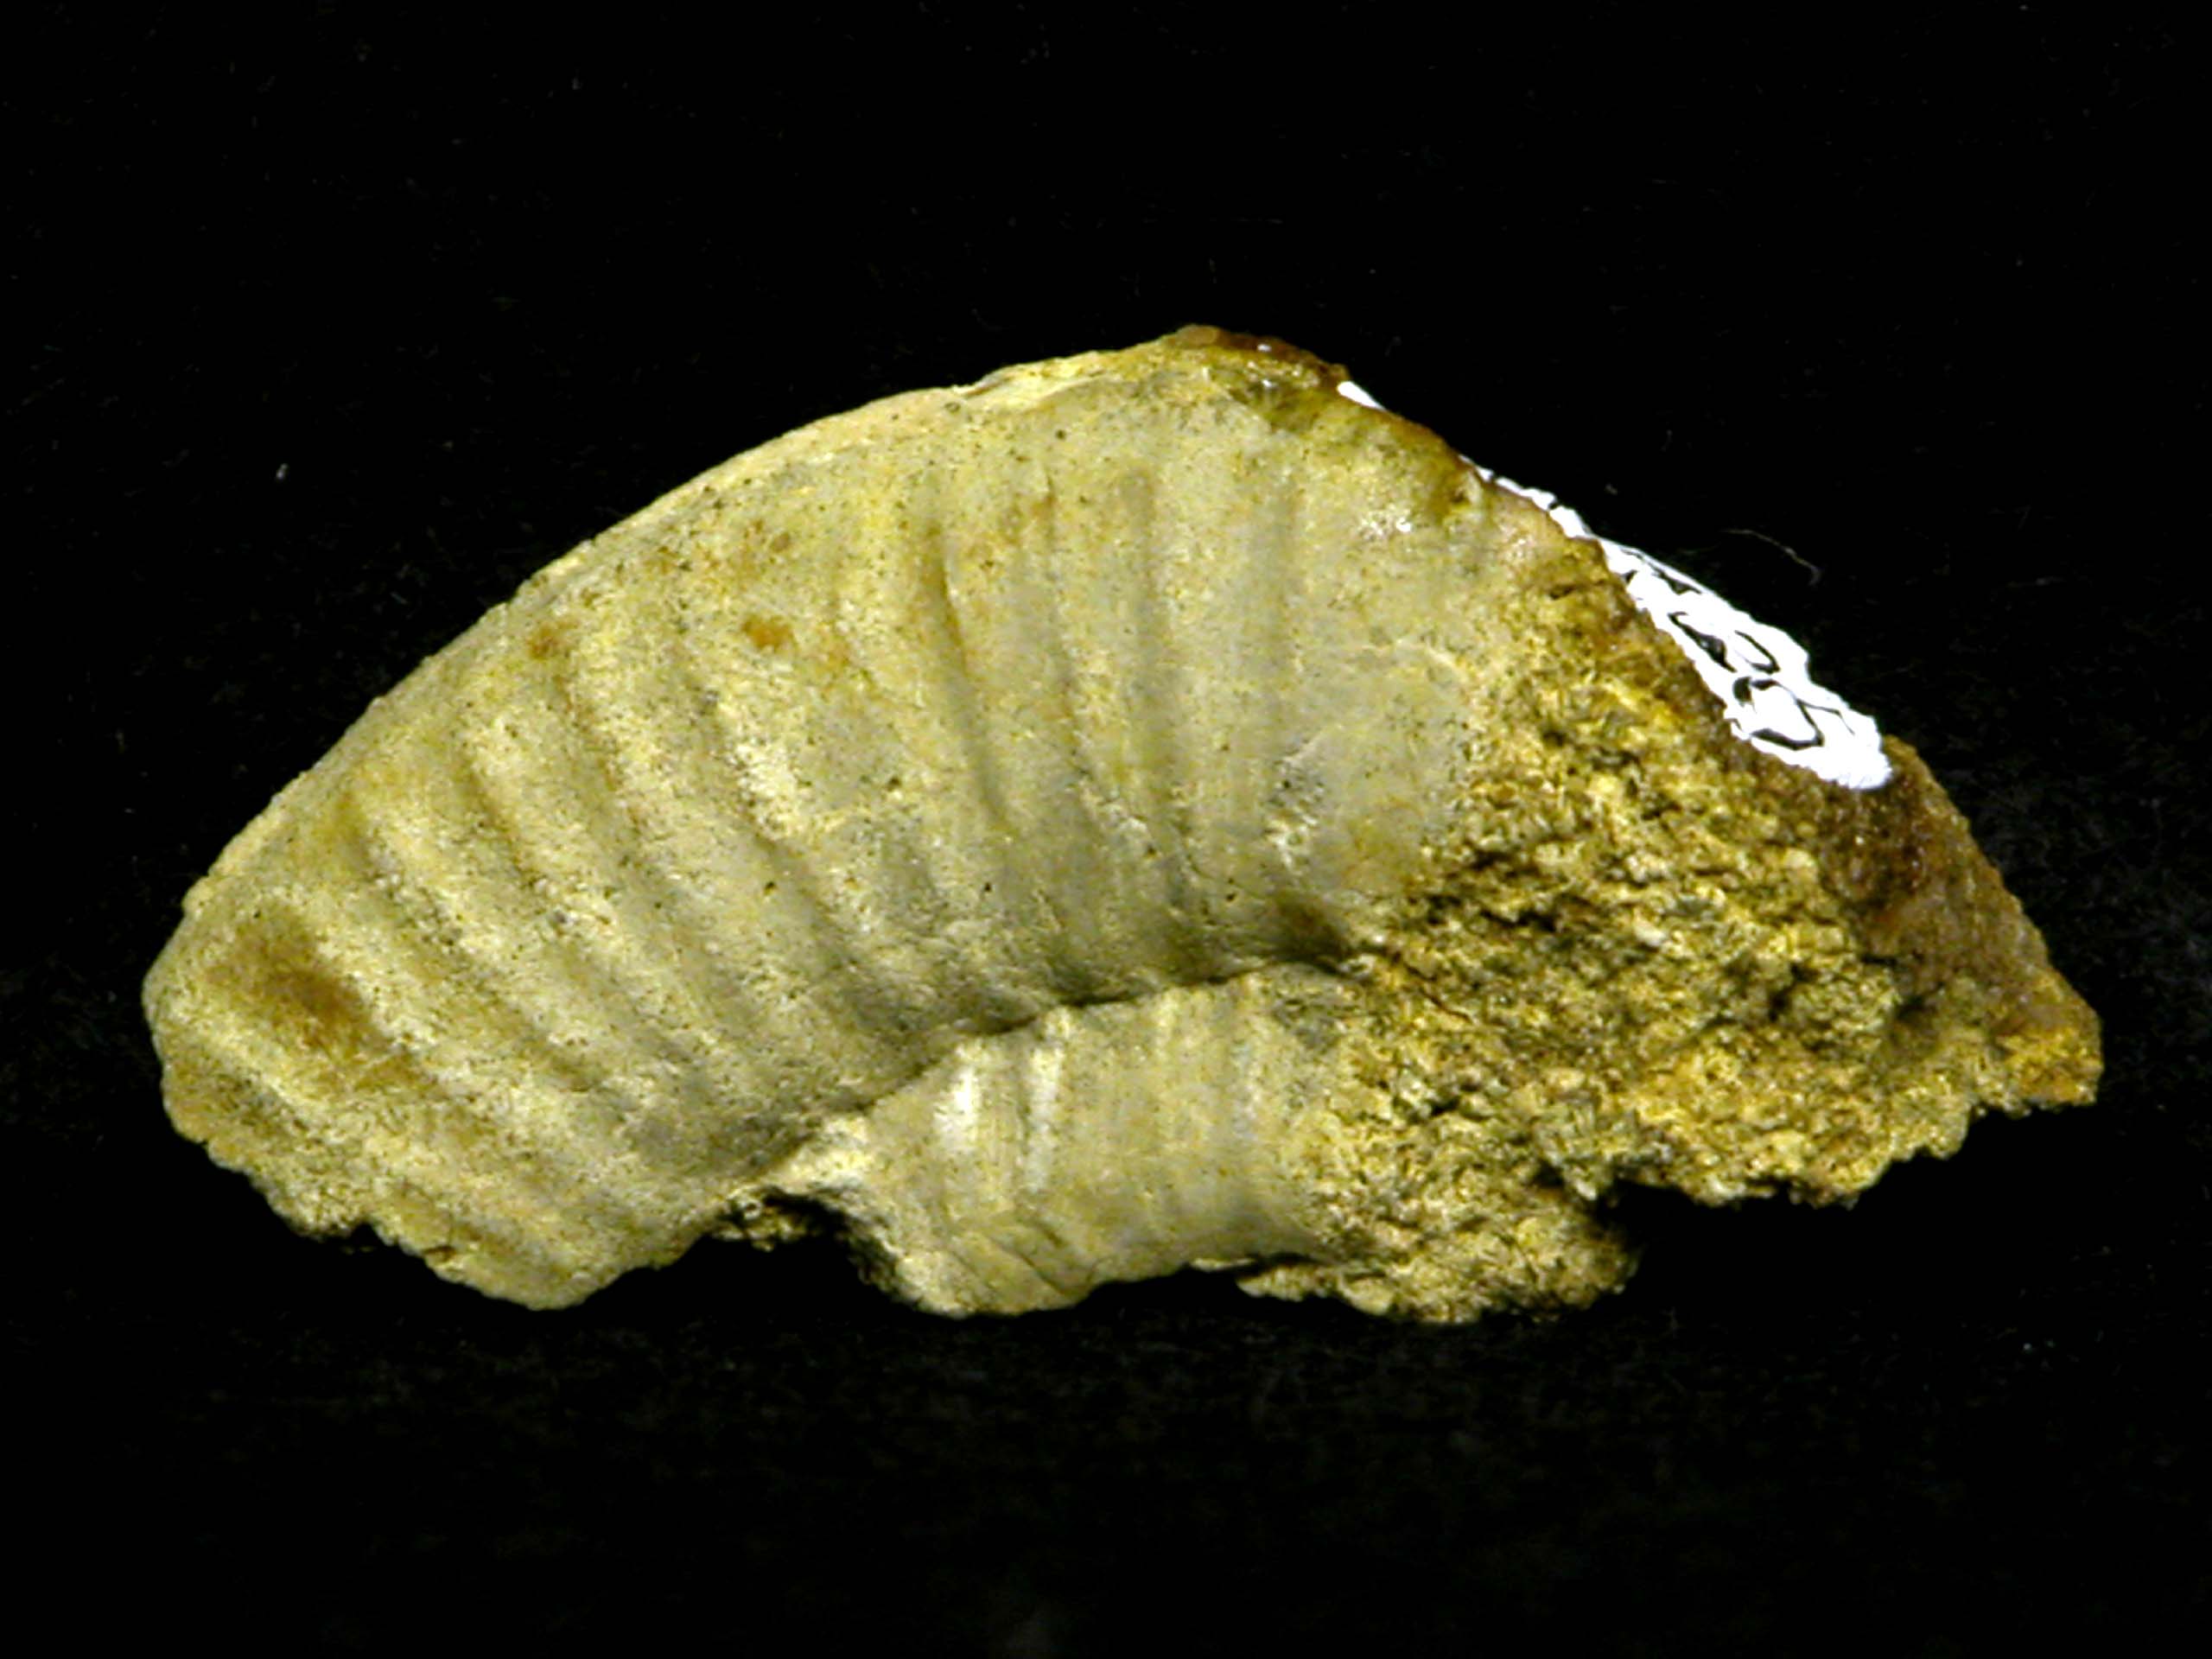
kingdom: Animalia
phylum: Mollusca
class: Cephalopoda
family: Arietitidae
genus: Arnioceras
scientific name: Arnioceras
